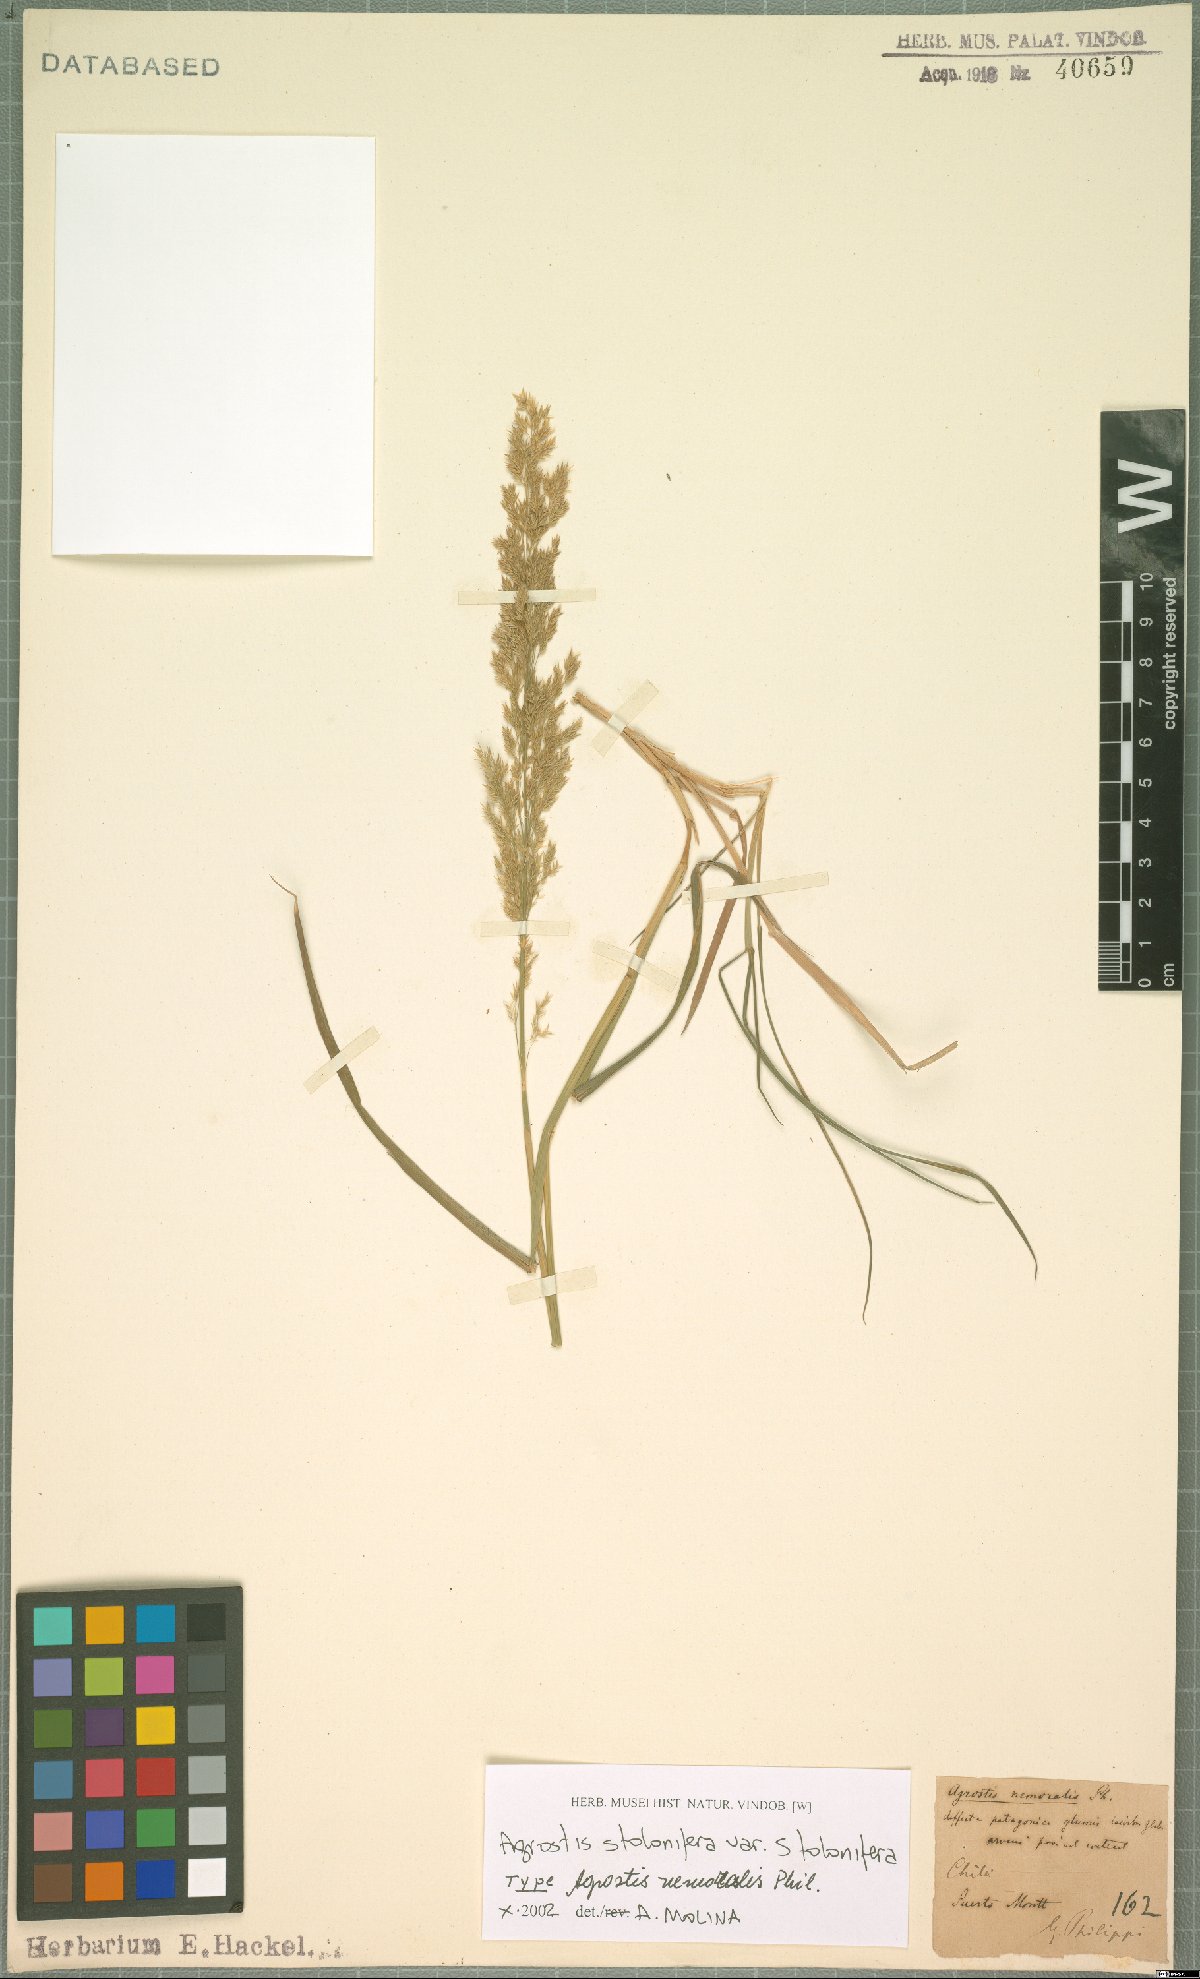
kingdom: Plantae
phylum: Tracheophyta
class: Liliopsida
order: Poales
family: Poaceae
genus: Agrostis
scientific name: Agrostis stolonifera
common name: Creeping bentgrass
